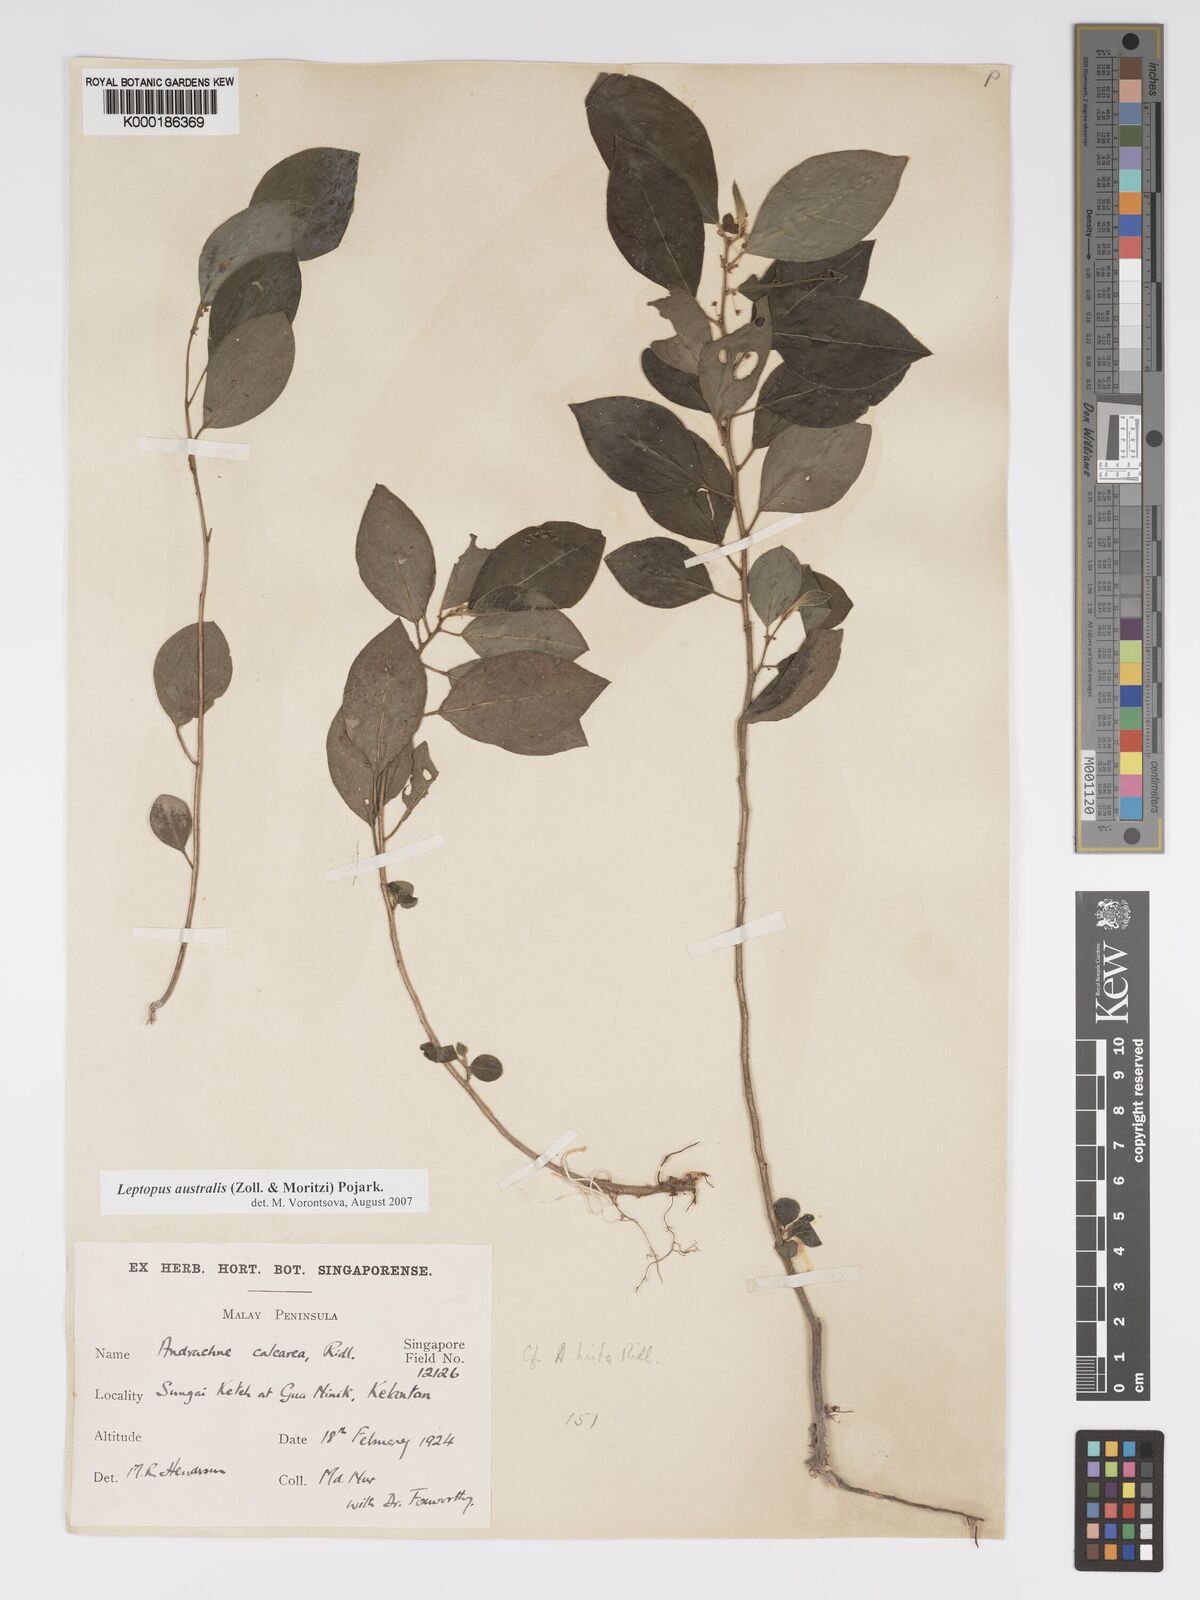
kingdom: Plantae
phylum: Tracheophyta
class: Magnoliopsida
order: Malpighiales
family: Phyllanthaceae
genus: Leptopus
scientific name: Leptopus australis
